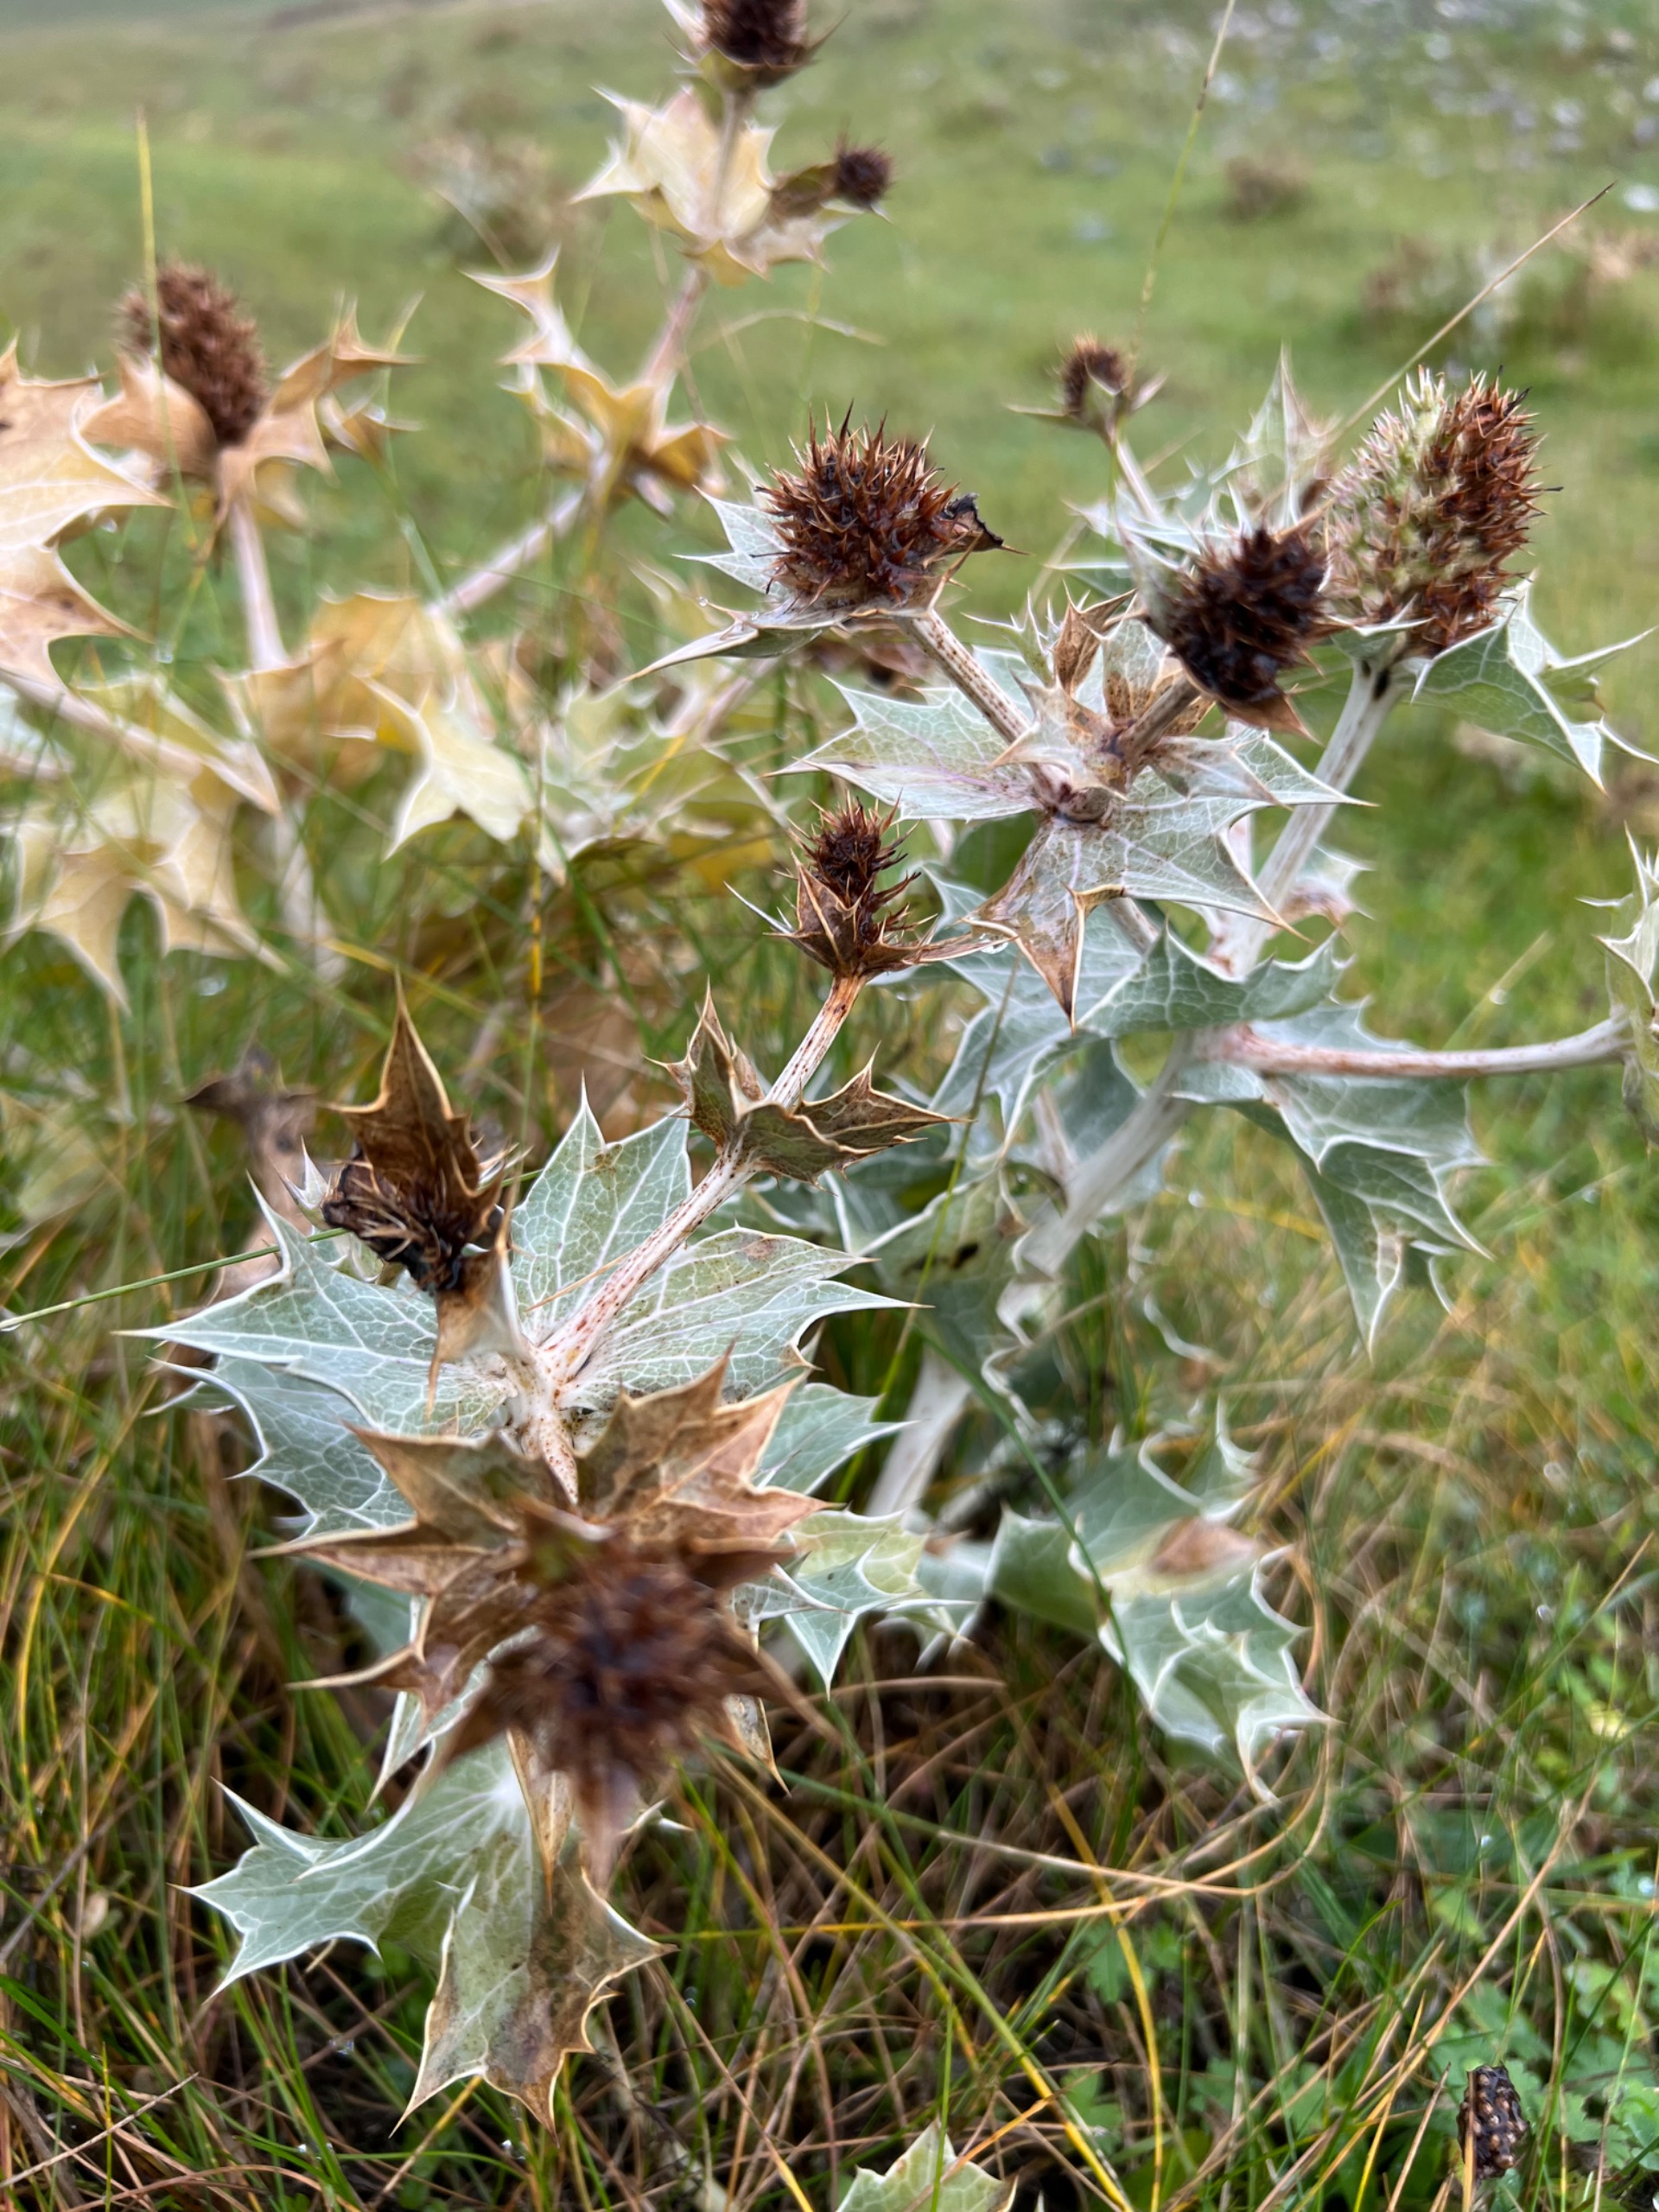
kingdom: Plantae
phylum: Tracheophyta
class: Magnoliopsida
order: Apiales
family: Apiaceae
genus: Eryngium
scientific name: Eryngium maritimum
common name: Strand-mandstro
